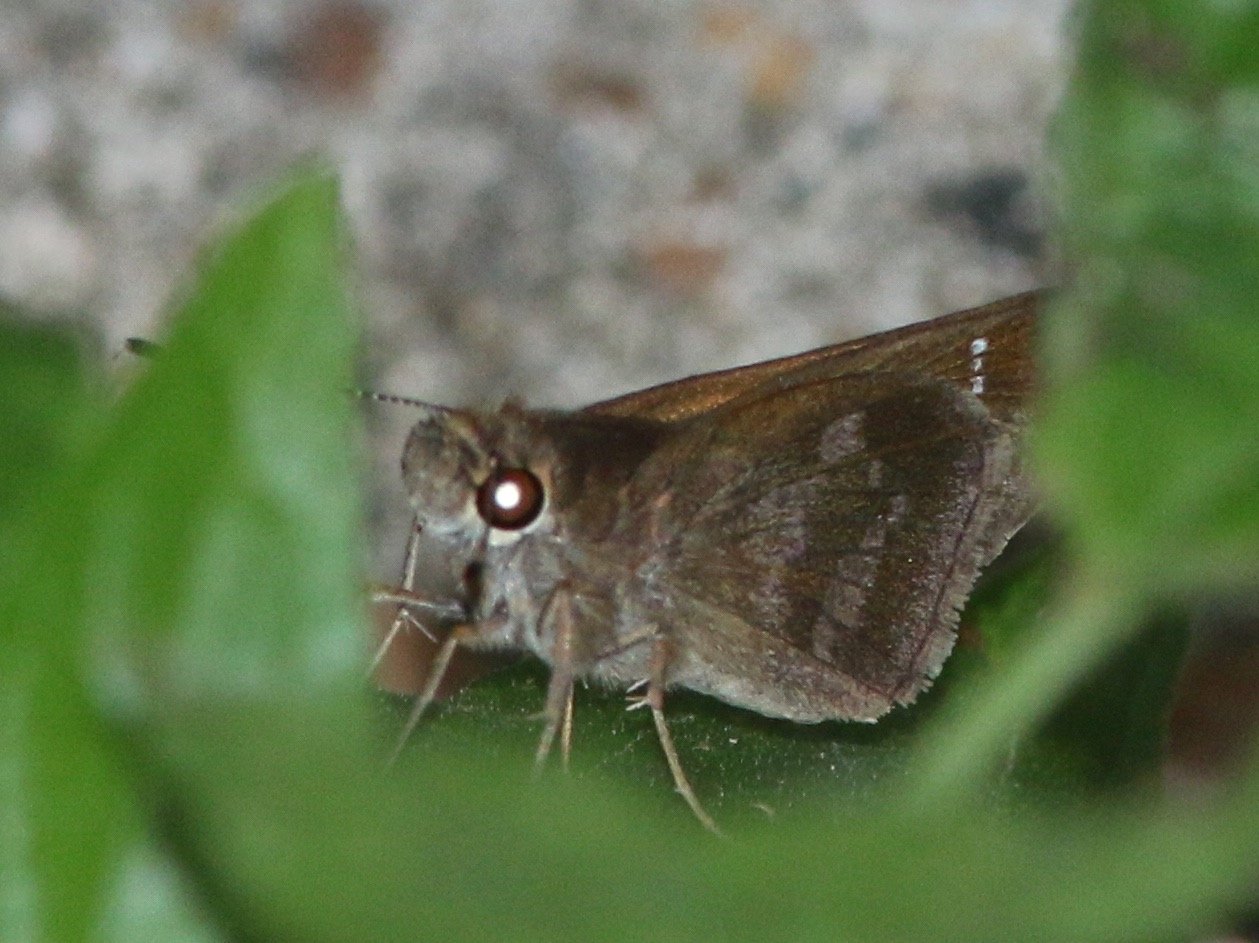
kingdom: Animalia
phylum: Arthropoda
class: Insecta
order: Lepidoptera
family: Hesperiidae
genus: Cymaenes
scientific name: Cymaenes odilia
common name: Fawn-spotted Skipper
